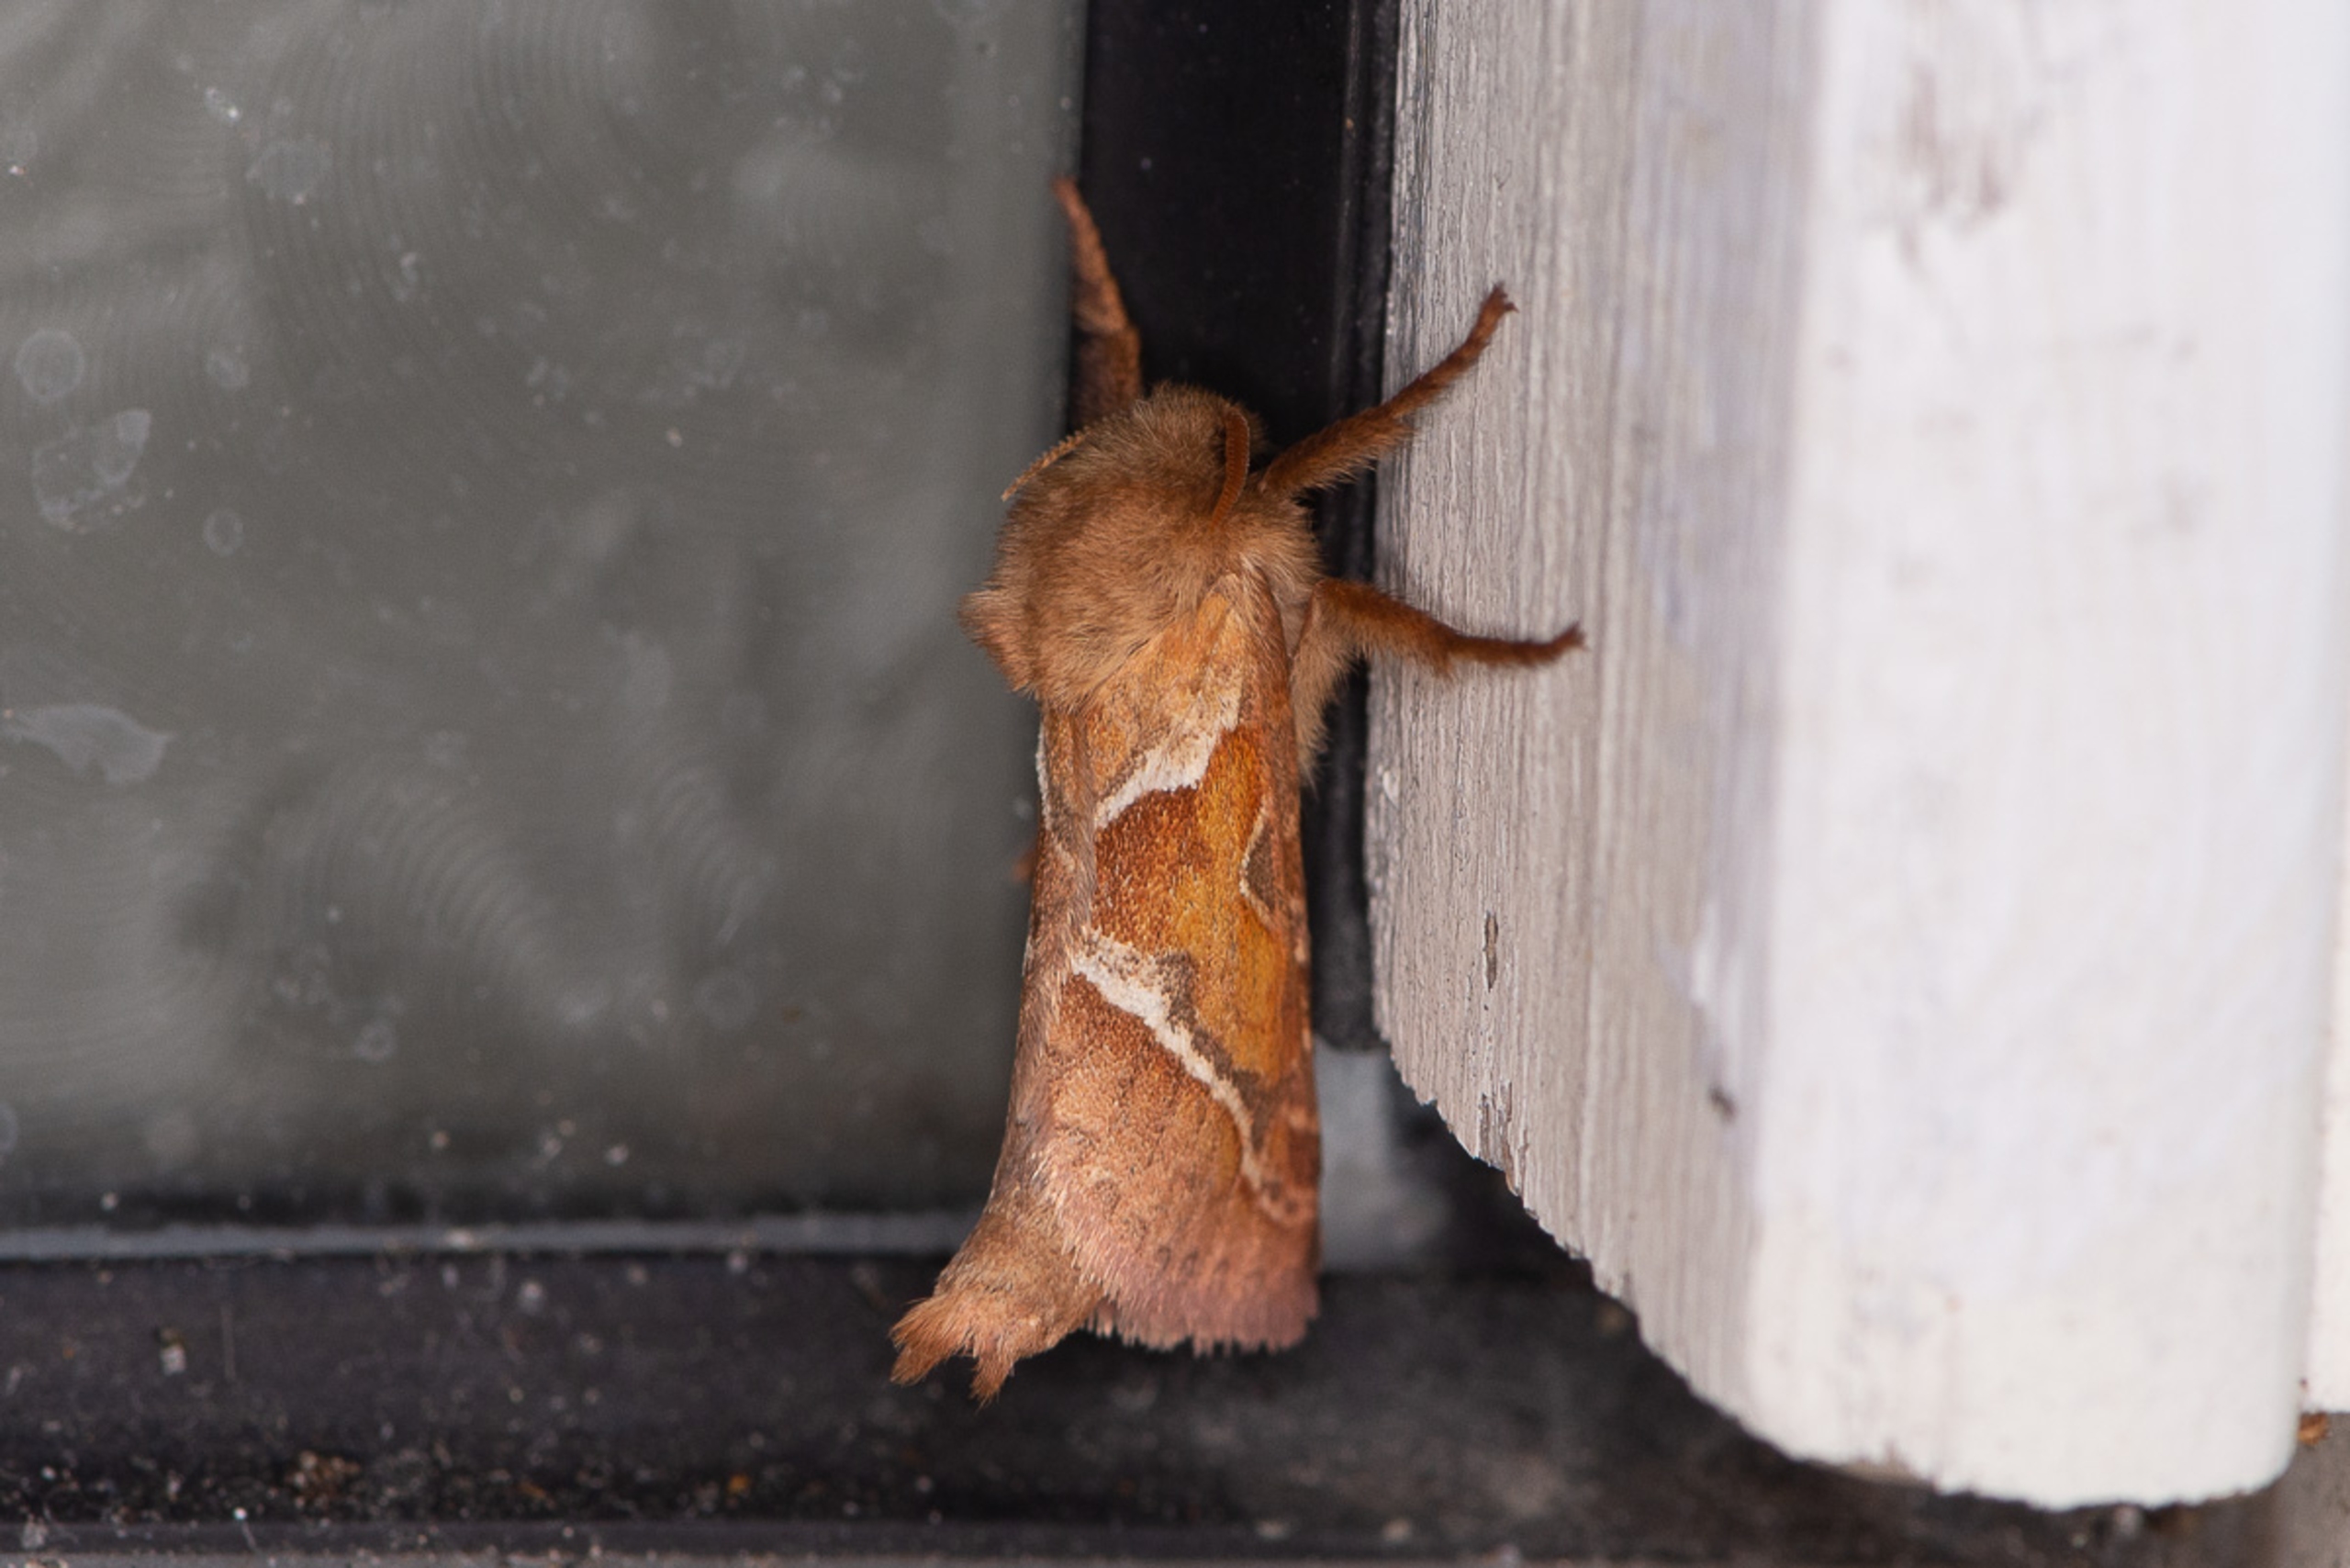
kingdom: Animalia
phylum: Arthropoda
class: Insecta
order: Lepidoptera
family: Hepialidae
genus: Triodia
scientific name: Triodia sylvina
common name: Skræpperodæder
